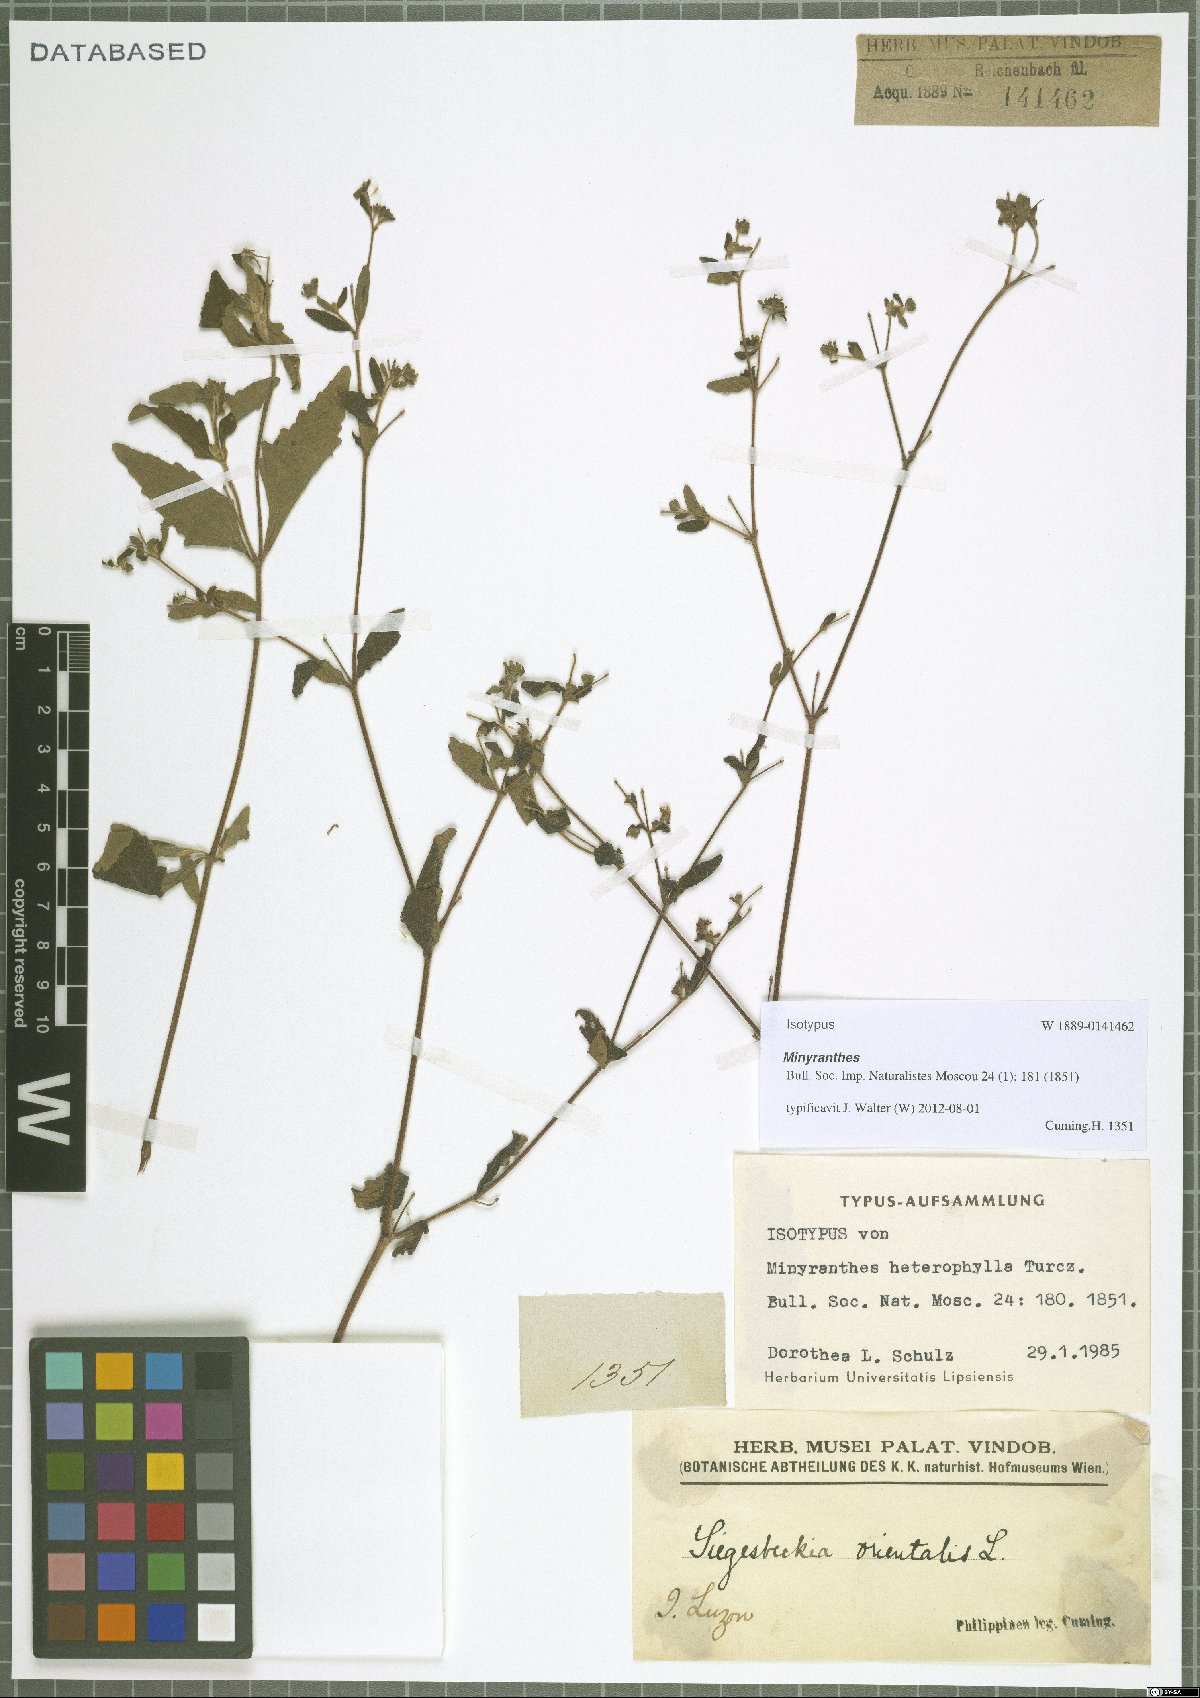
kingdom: Plantae
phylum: Tracheophyta
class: Magnoliopsida
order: Asterales
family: Asteraceae
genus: Sigesbeckia
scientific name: Sigesbeckia orientalis
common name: Eastern st paul's-wort
